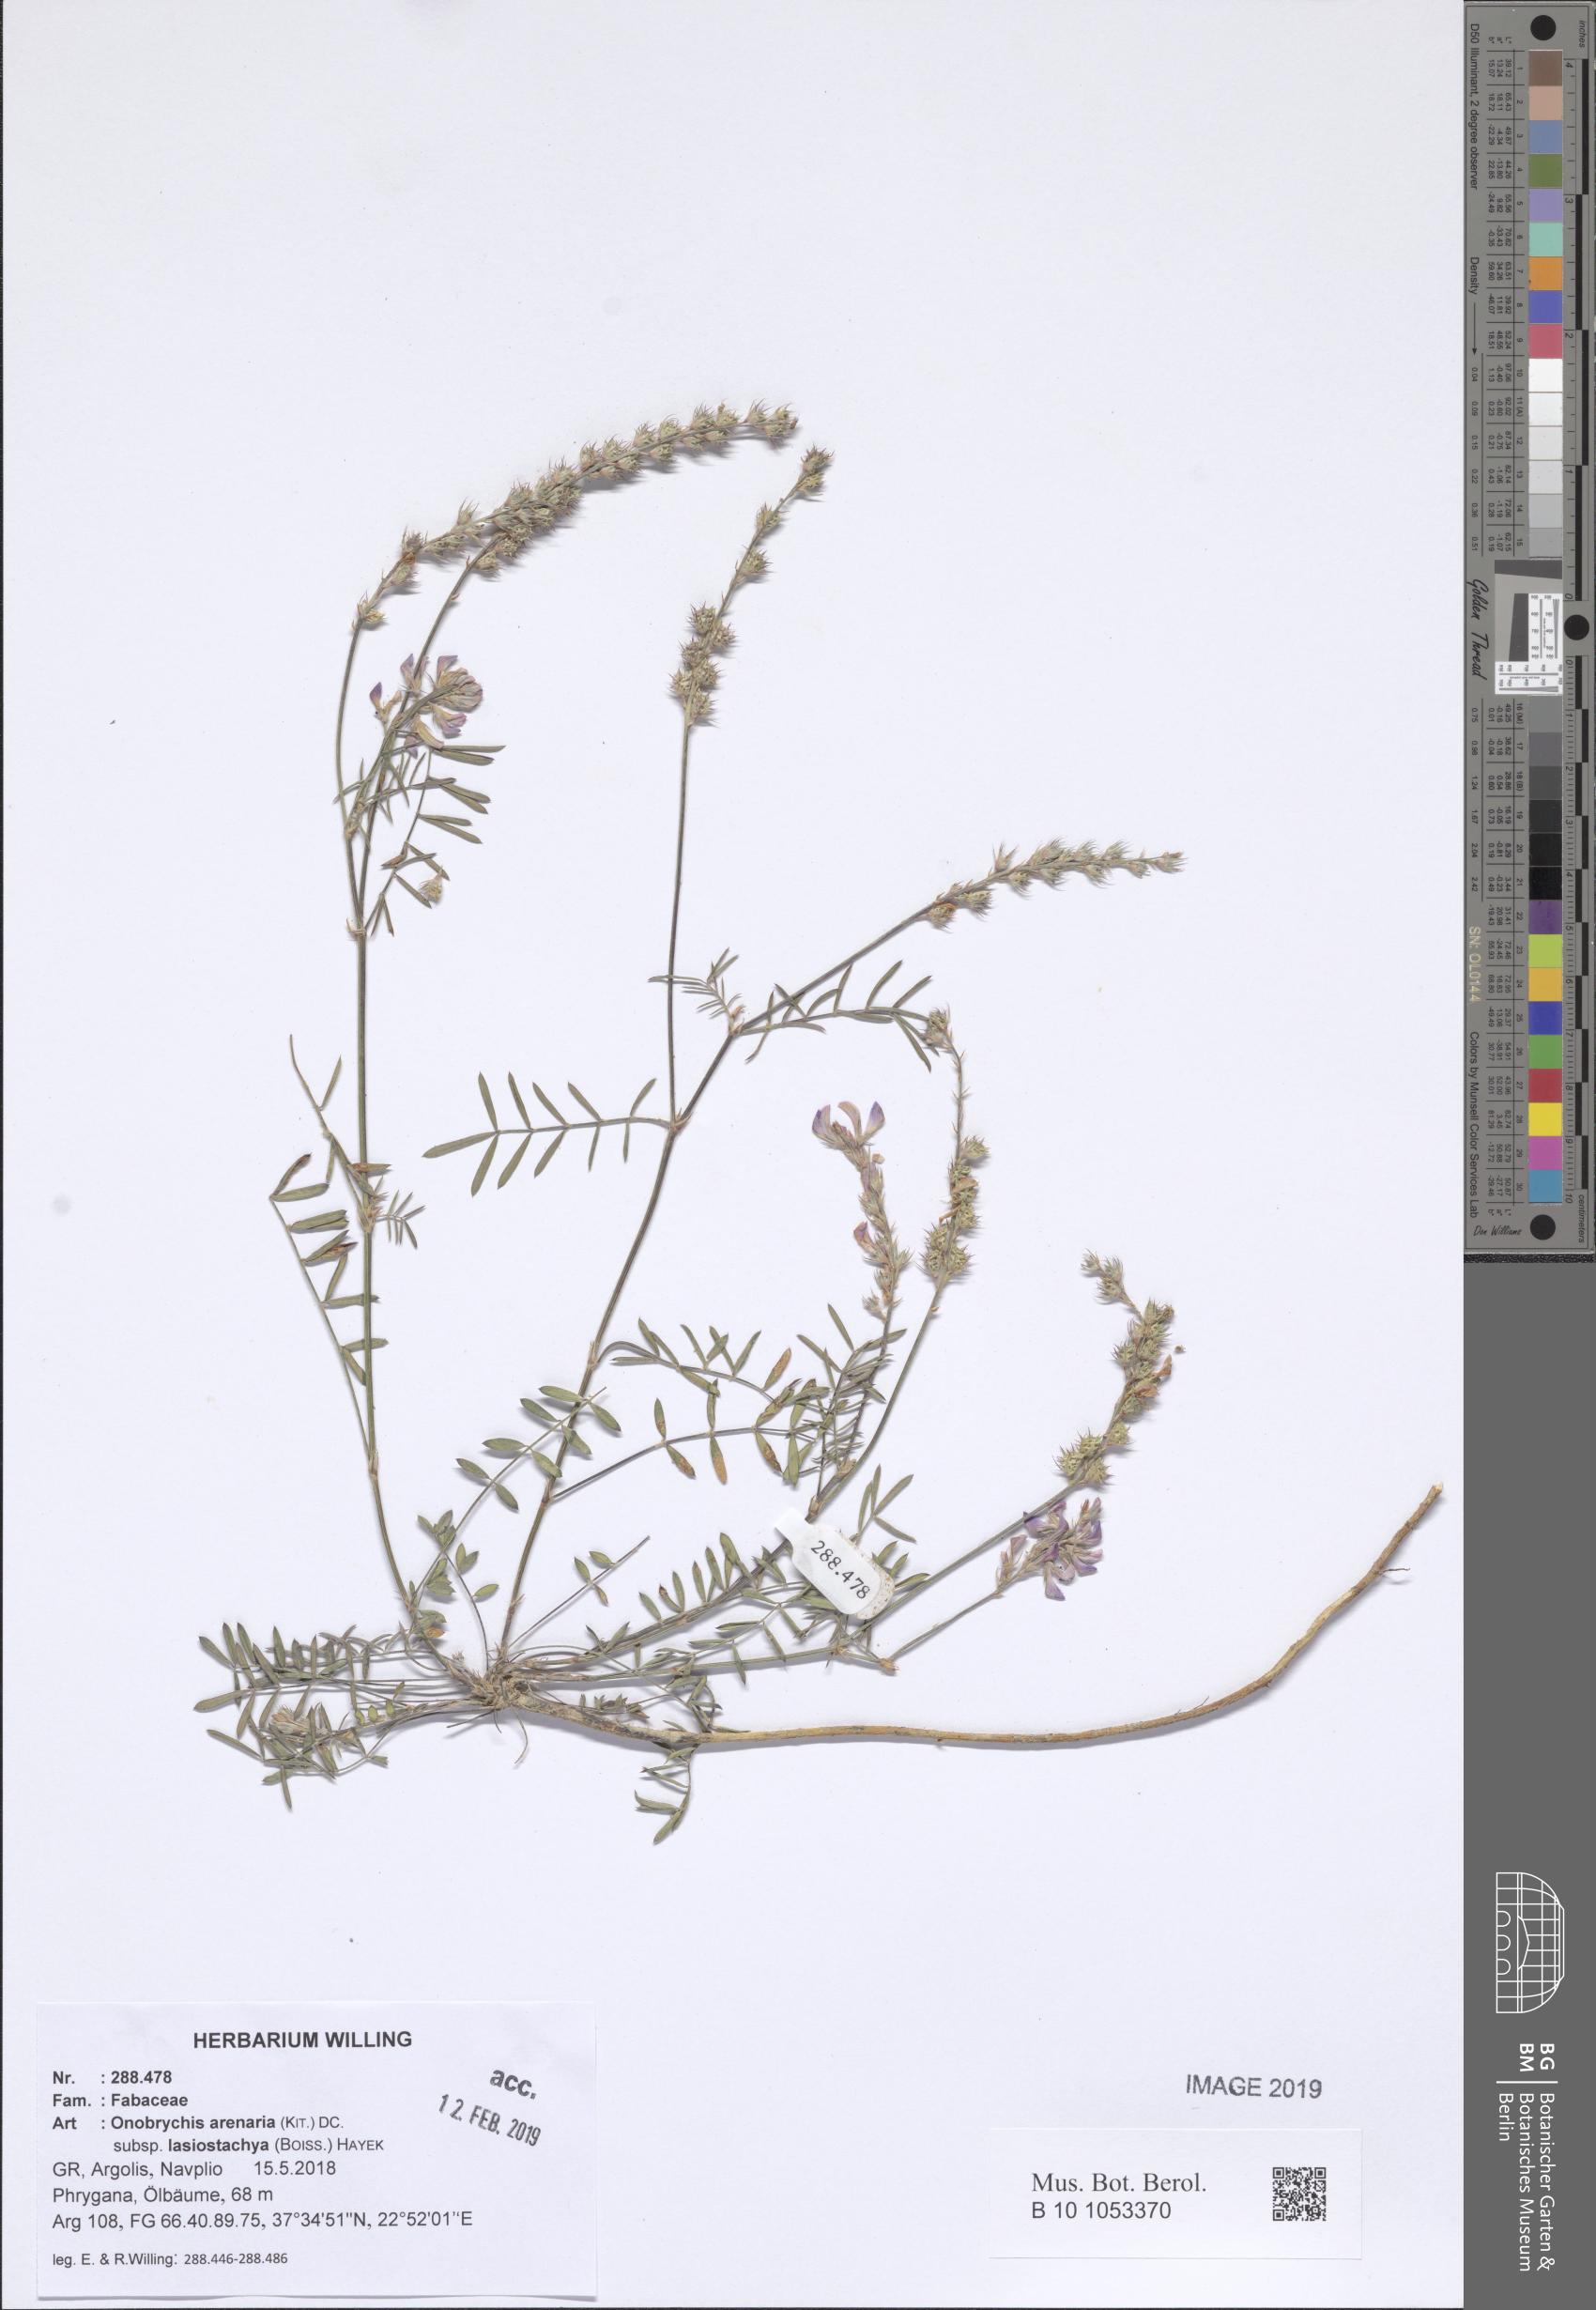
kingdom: Plantae
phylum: Tracheophyta
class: Magnoliopsida
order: Fabales
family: Fabaceae
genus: Onobrychis
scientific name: Onobrychis arenaria
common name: Sand esparcet
